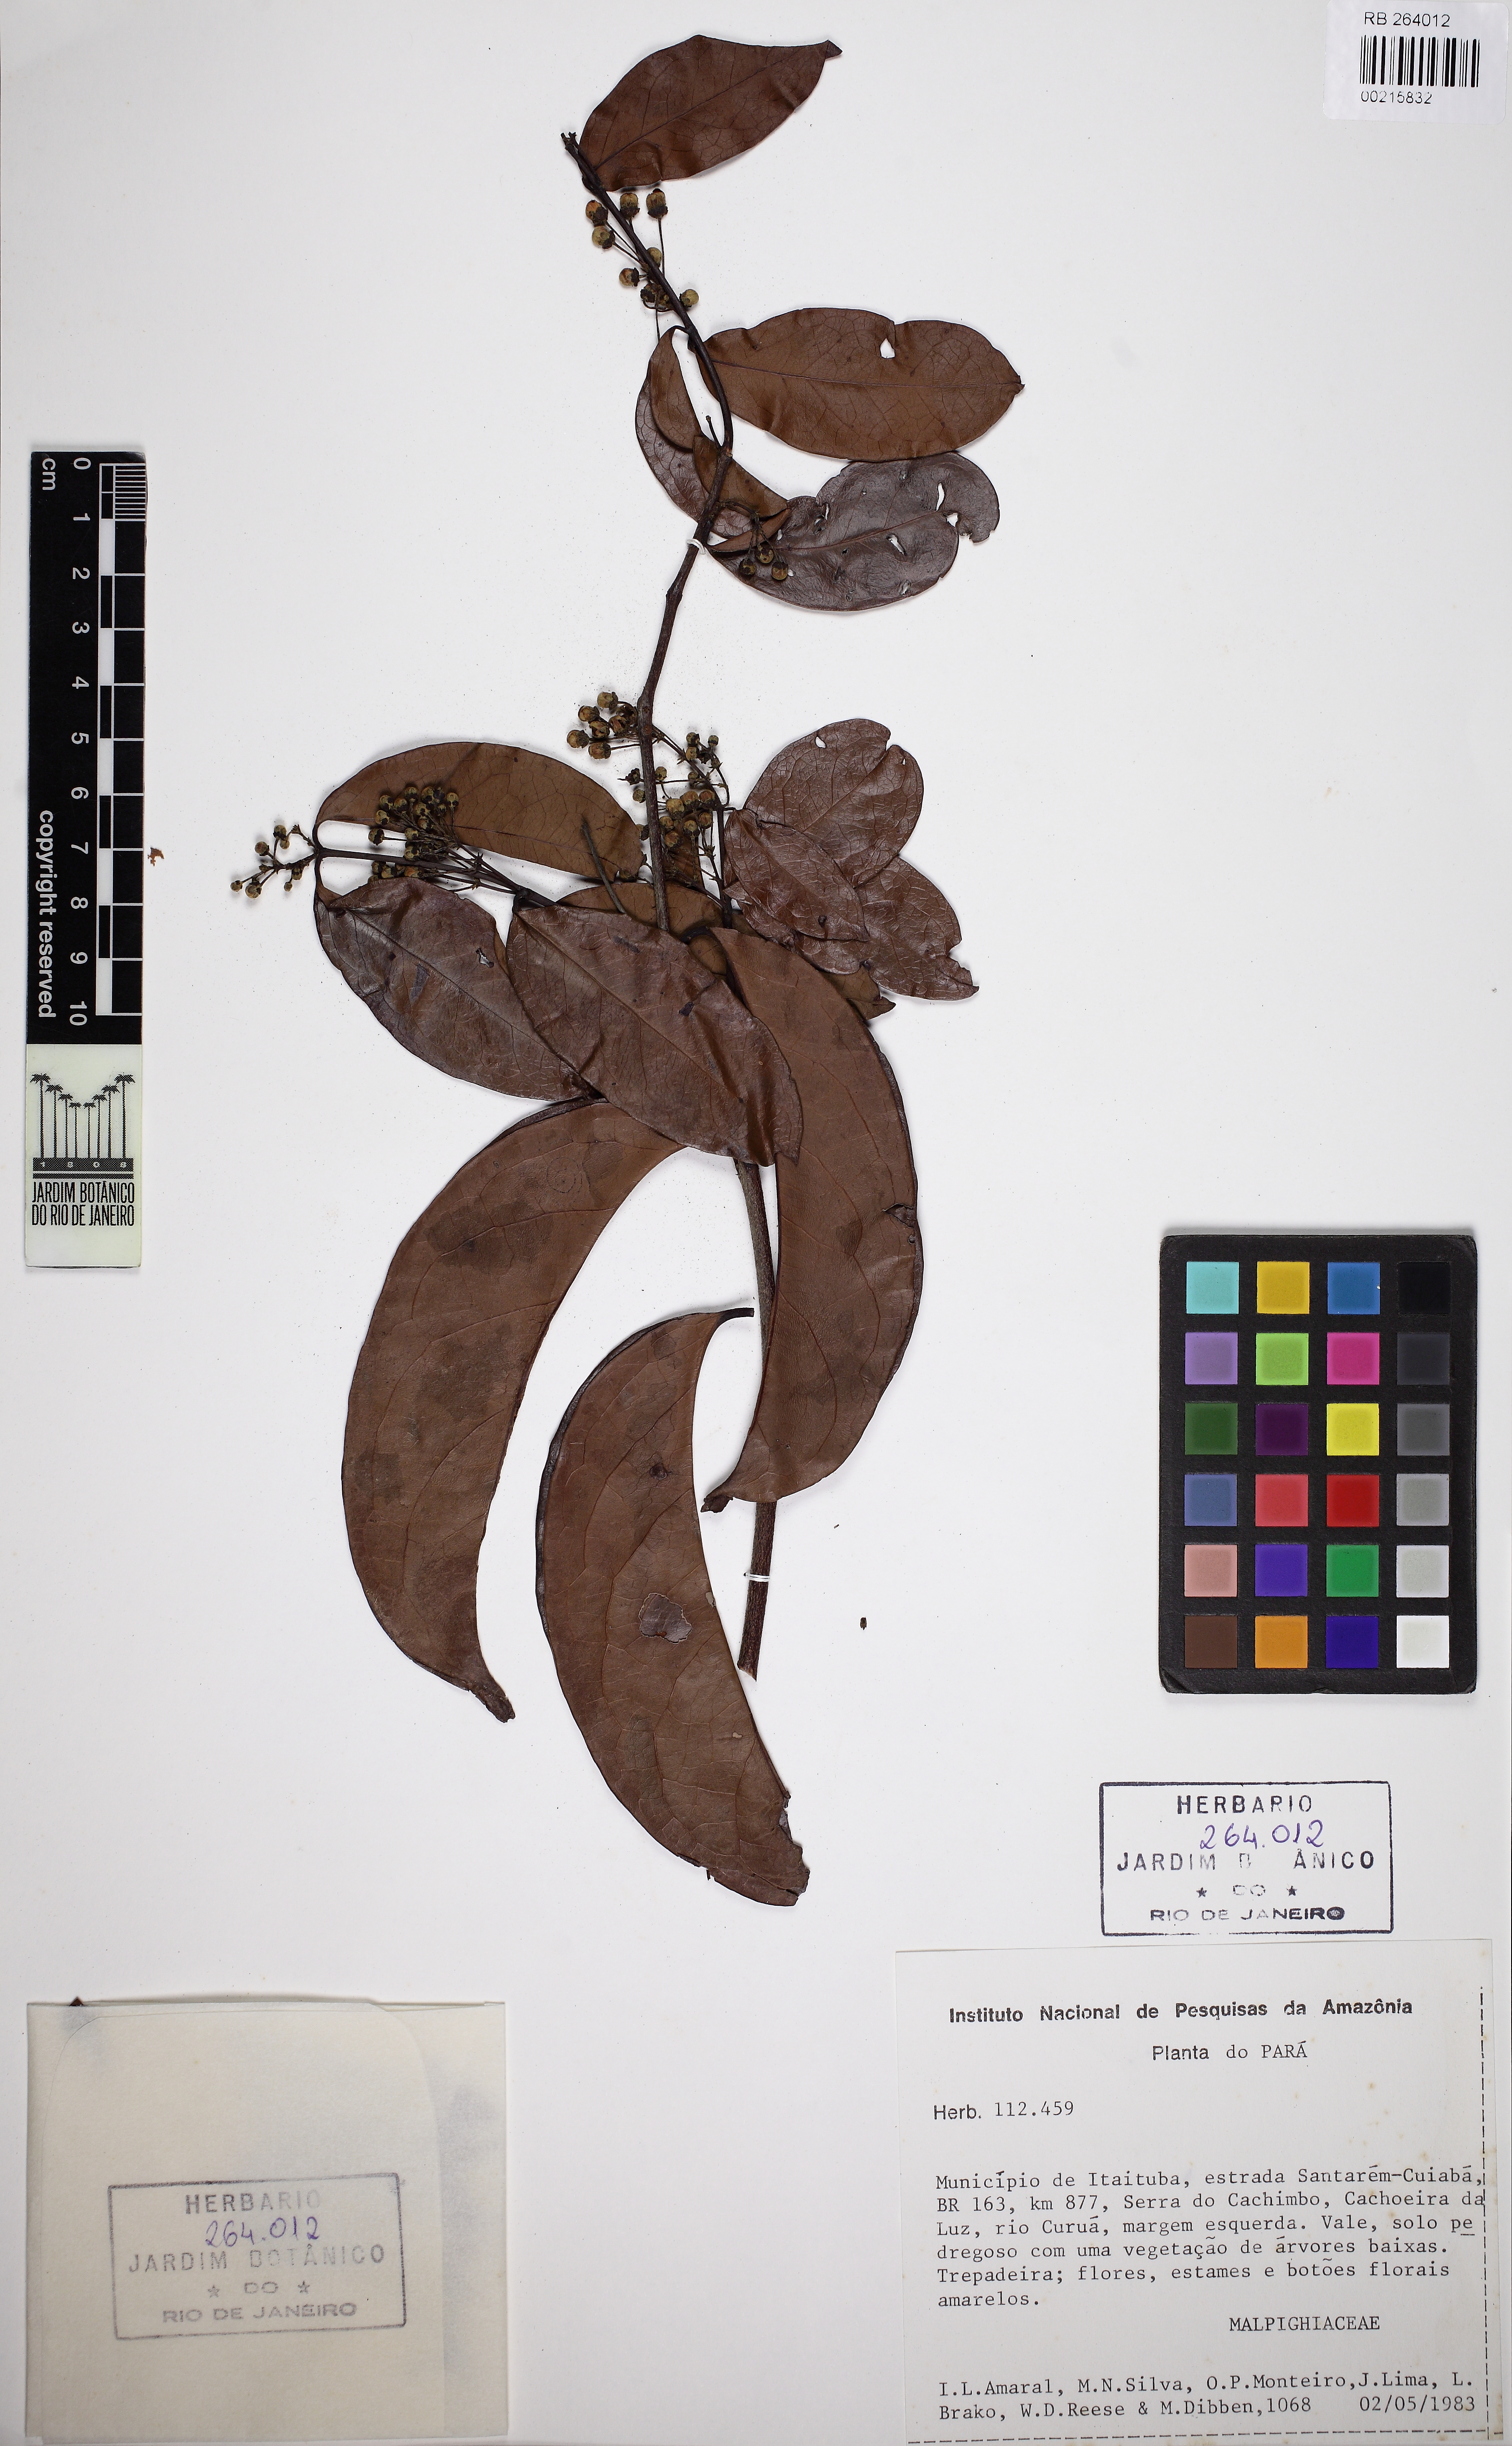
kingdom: Plantae
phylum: Tracheophyta
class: Magnoliopsida
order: Malpighiales
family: Malpighiaceae
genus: Diplopterys
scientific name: Diplopterys
